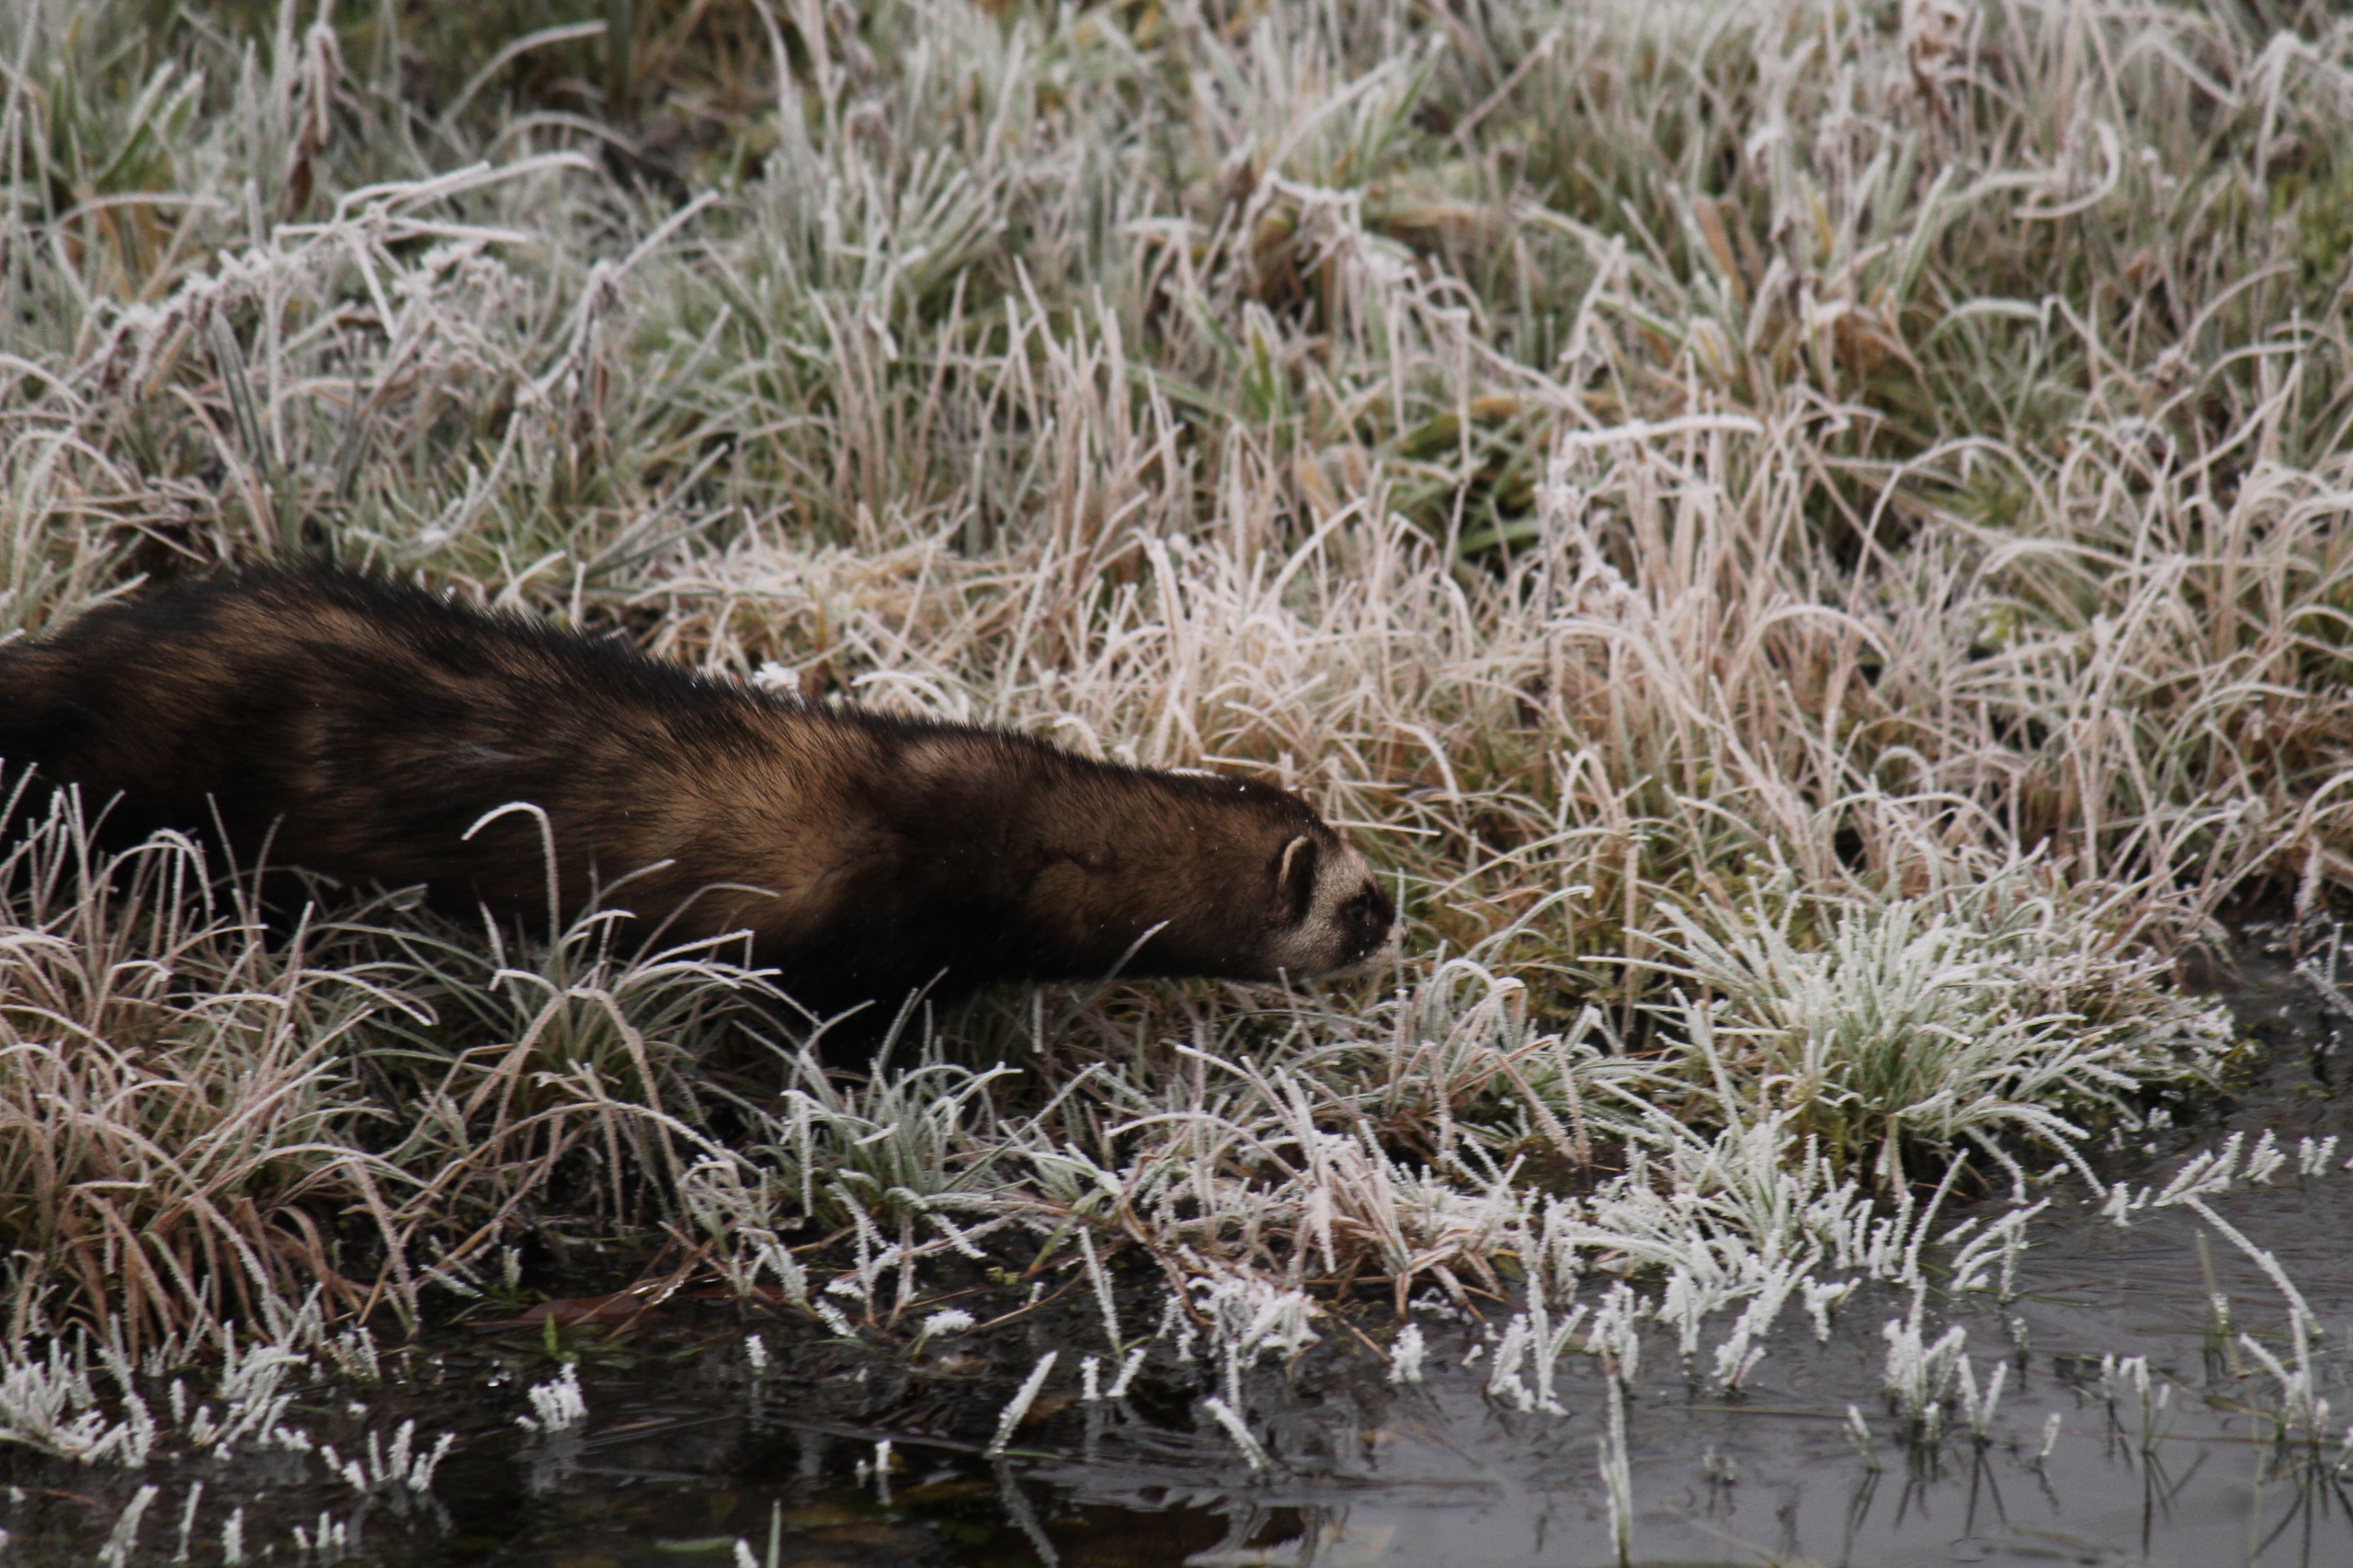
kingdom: Animalia
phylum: Chordata
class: Mammalia
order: Carnivora
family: Mustelidae
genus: Mustela
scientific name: Mustela putorius
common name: Ilder
